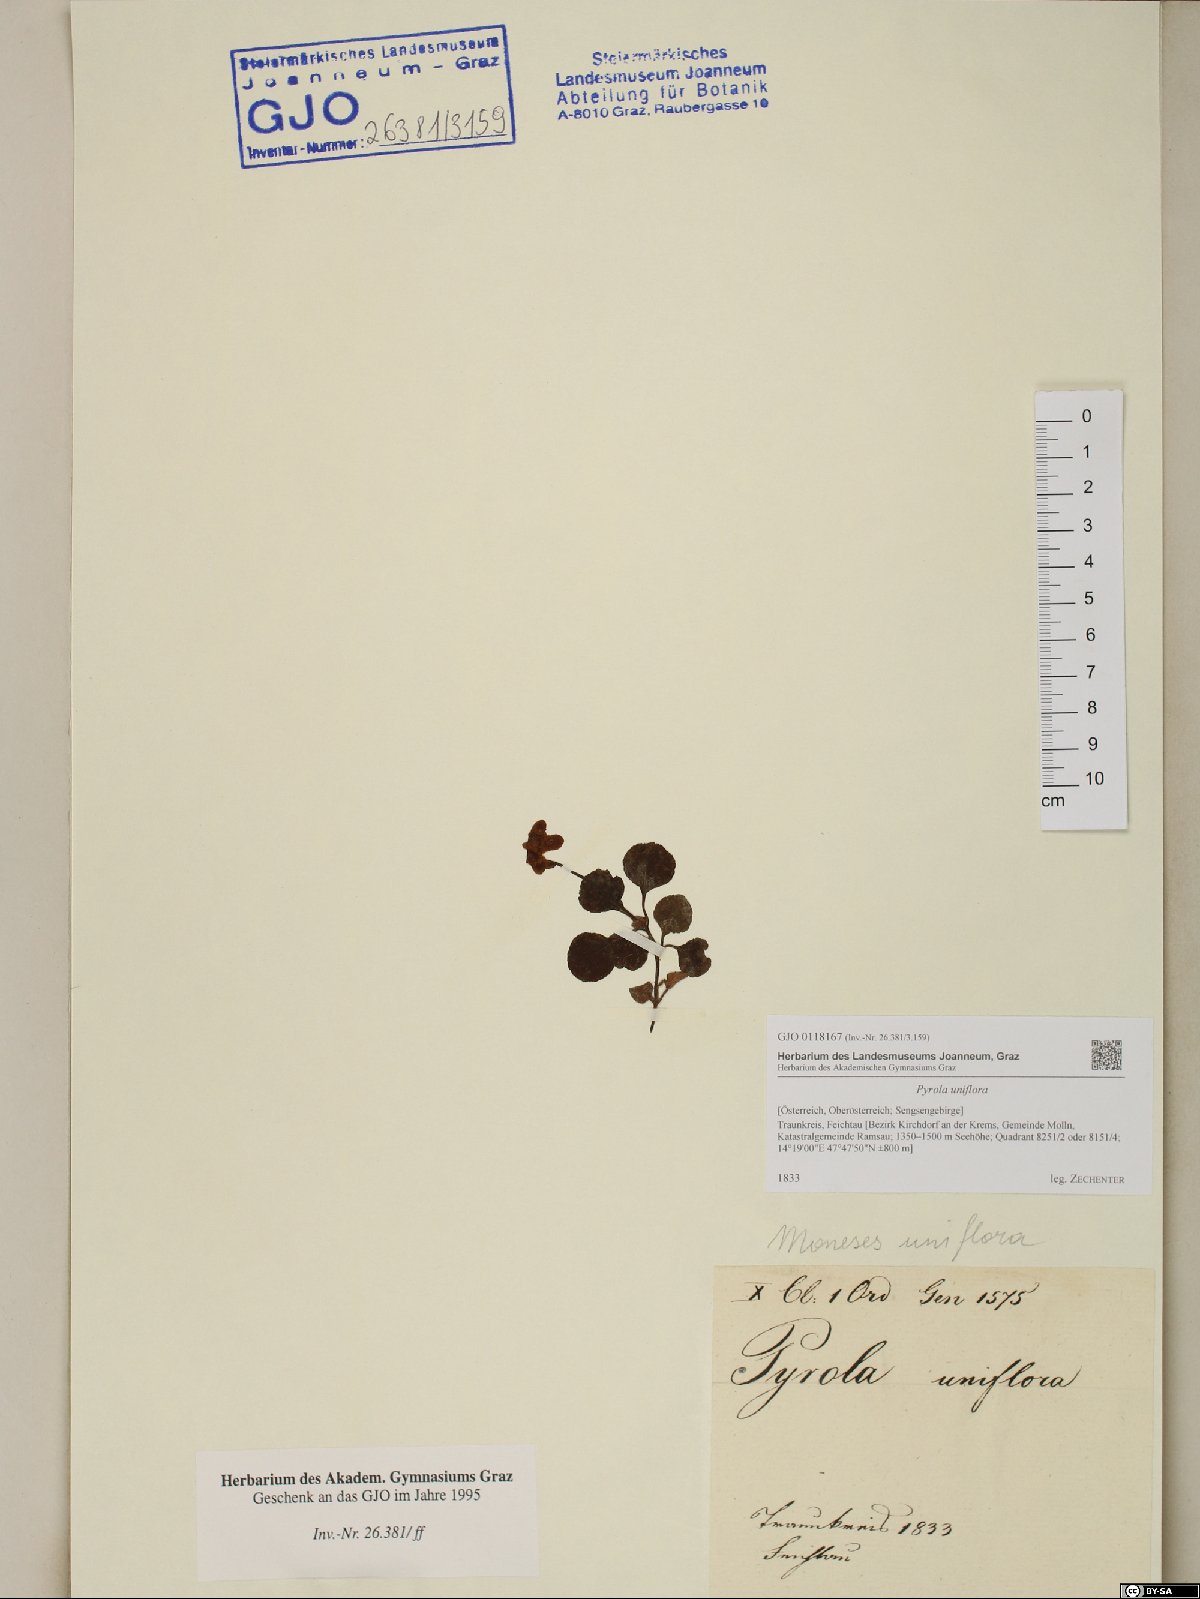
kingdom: Plantae
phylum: Tracheophyta
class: Magnoliopsida
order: Ericales
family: Ericaceae
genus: Moneses
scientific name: Moneses uniflora
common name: One-flowered wintergreen
